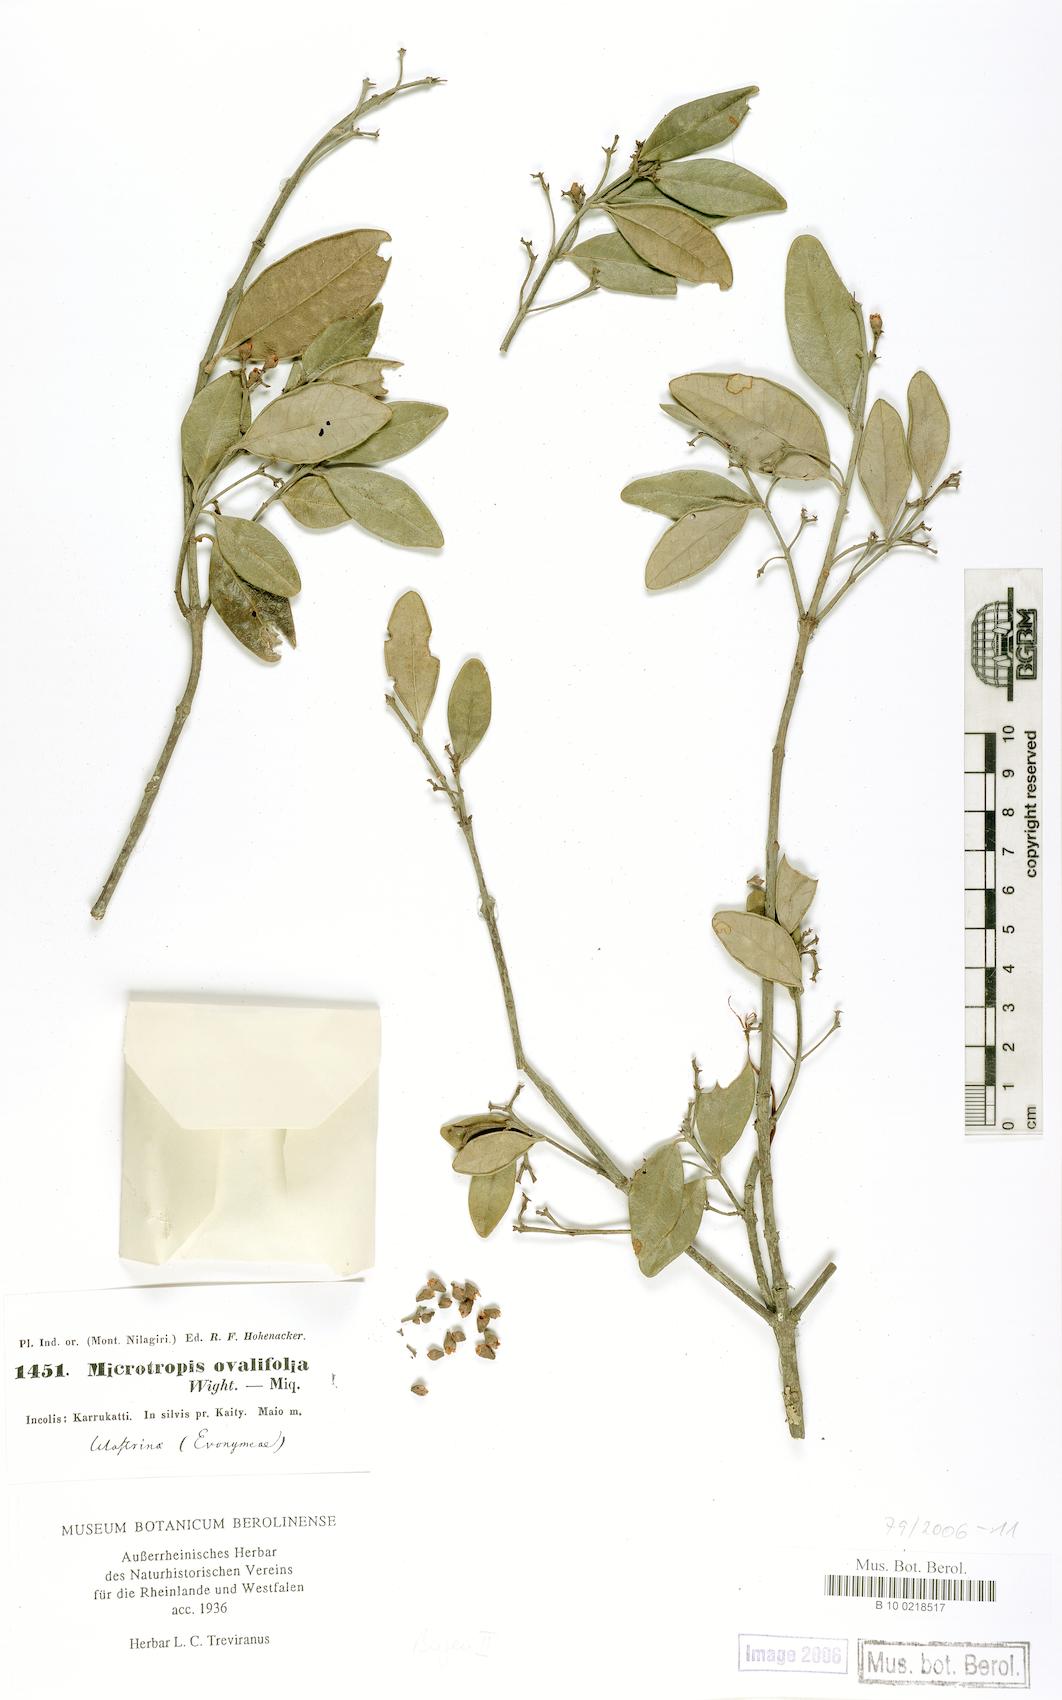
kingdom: Plantae
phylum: Tracheophyta
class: Magnoliopsida
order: Celastrales
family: Celastraceae
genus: Microtropis
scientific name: Microtropis microcarpa
